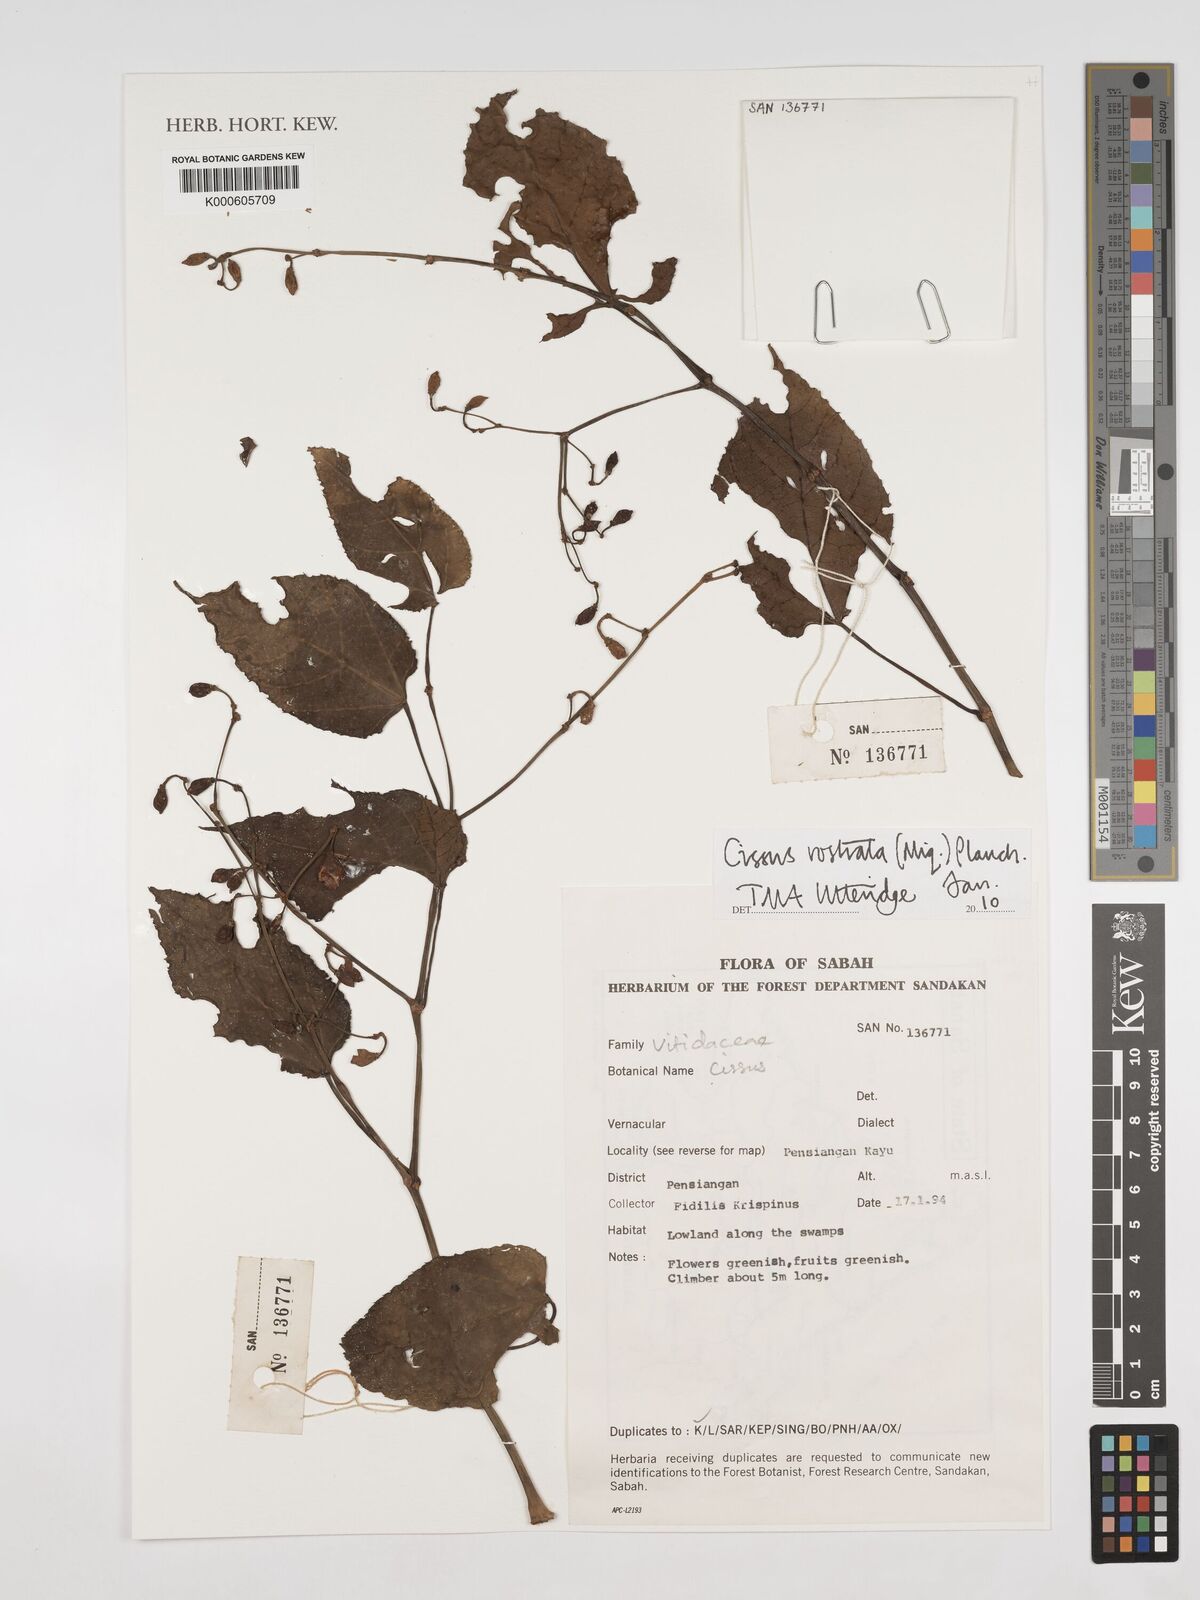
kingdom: Plantae
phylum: Tracheophyta
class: Magnoliopsida
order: Vitales
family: Vitaceae
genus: Cissus
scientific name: Cissus rostrata
